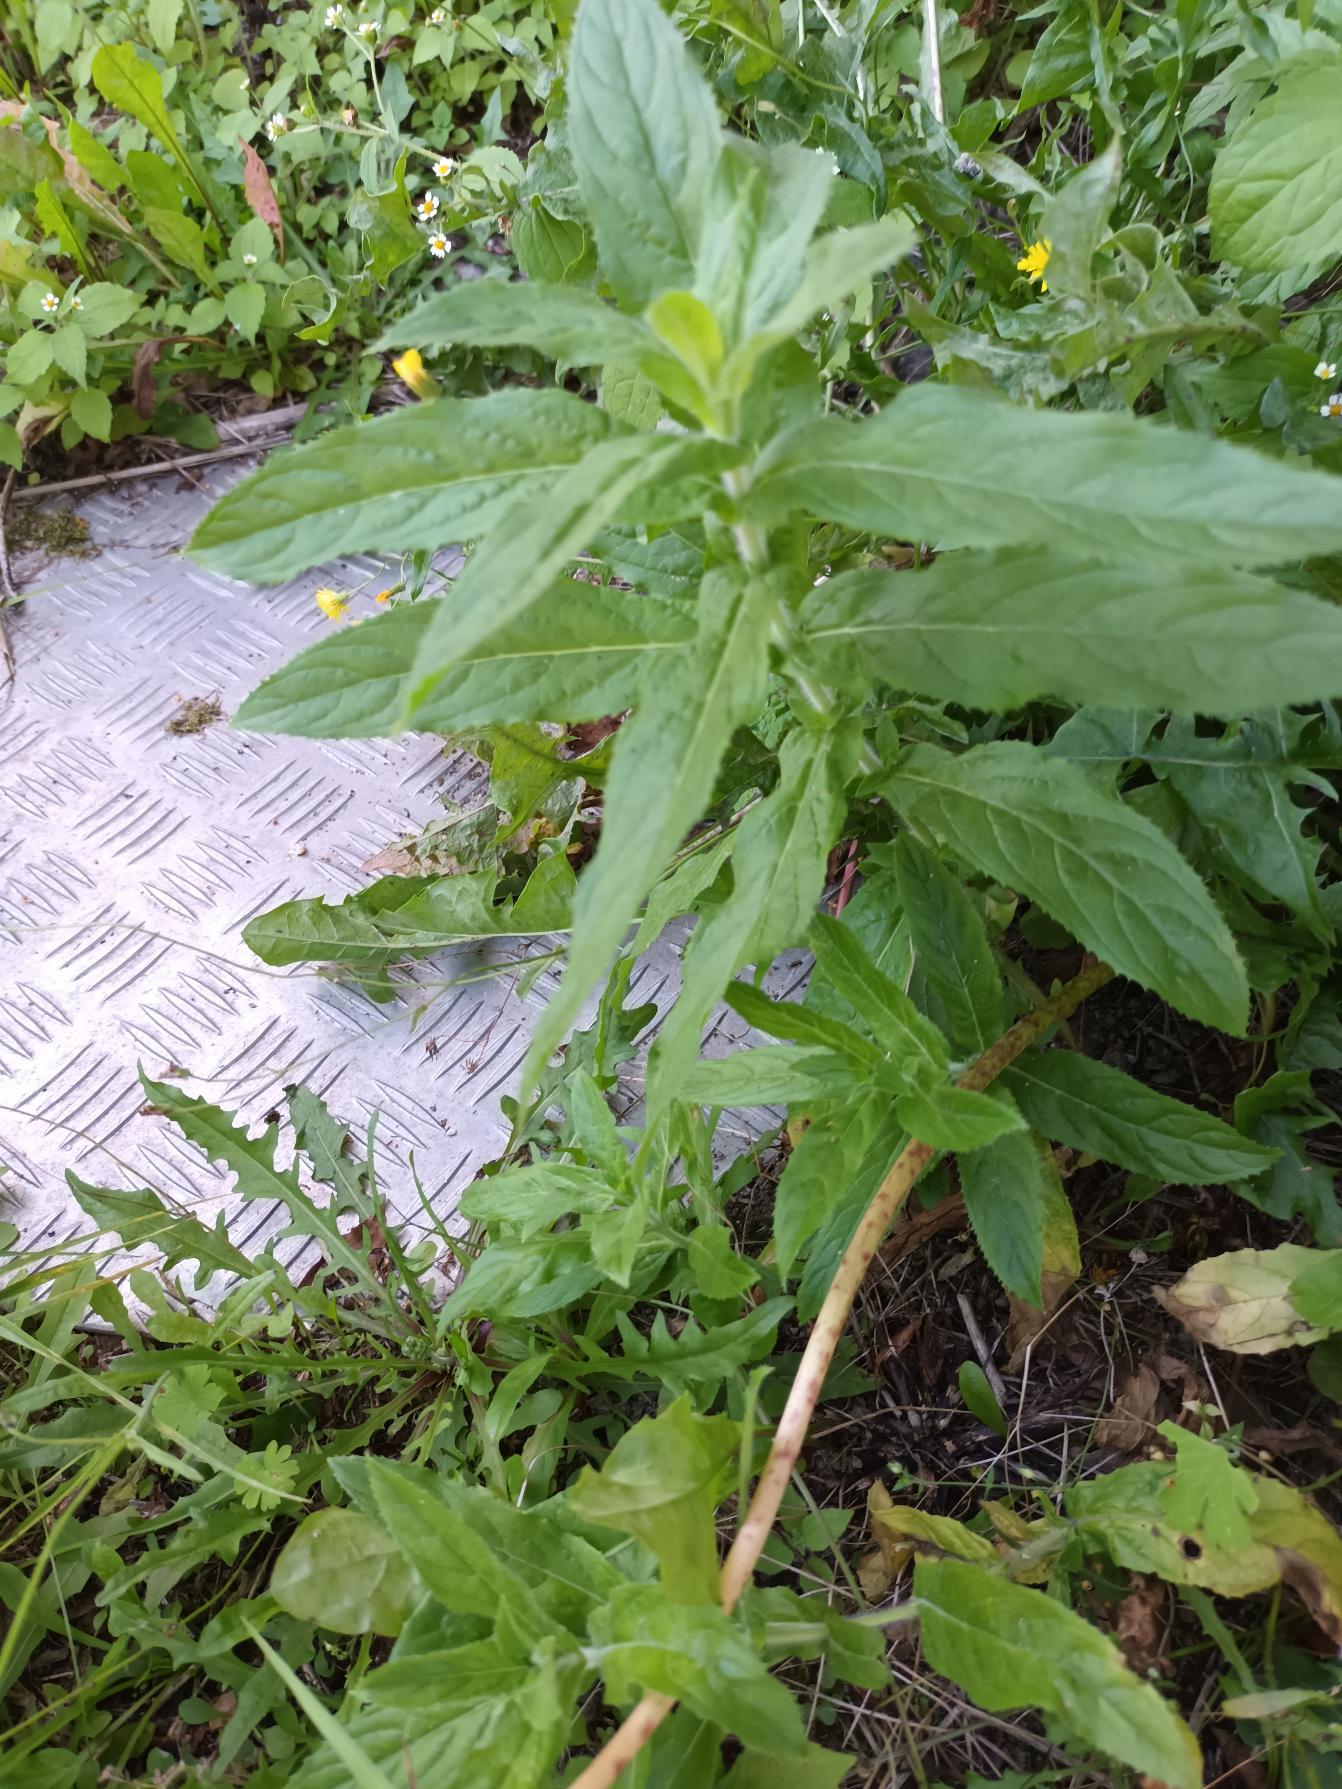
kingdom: Plantae
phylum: Tracheophyta
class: Magnoliopsida
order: Myrtales
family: Onagraceae
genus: Epilobium
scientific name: Epilobium hirsutum
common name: Lådden dueurt
